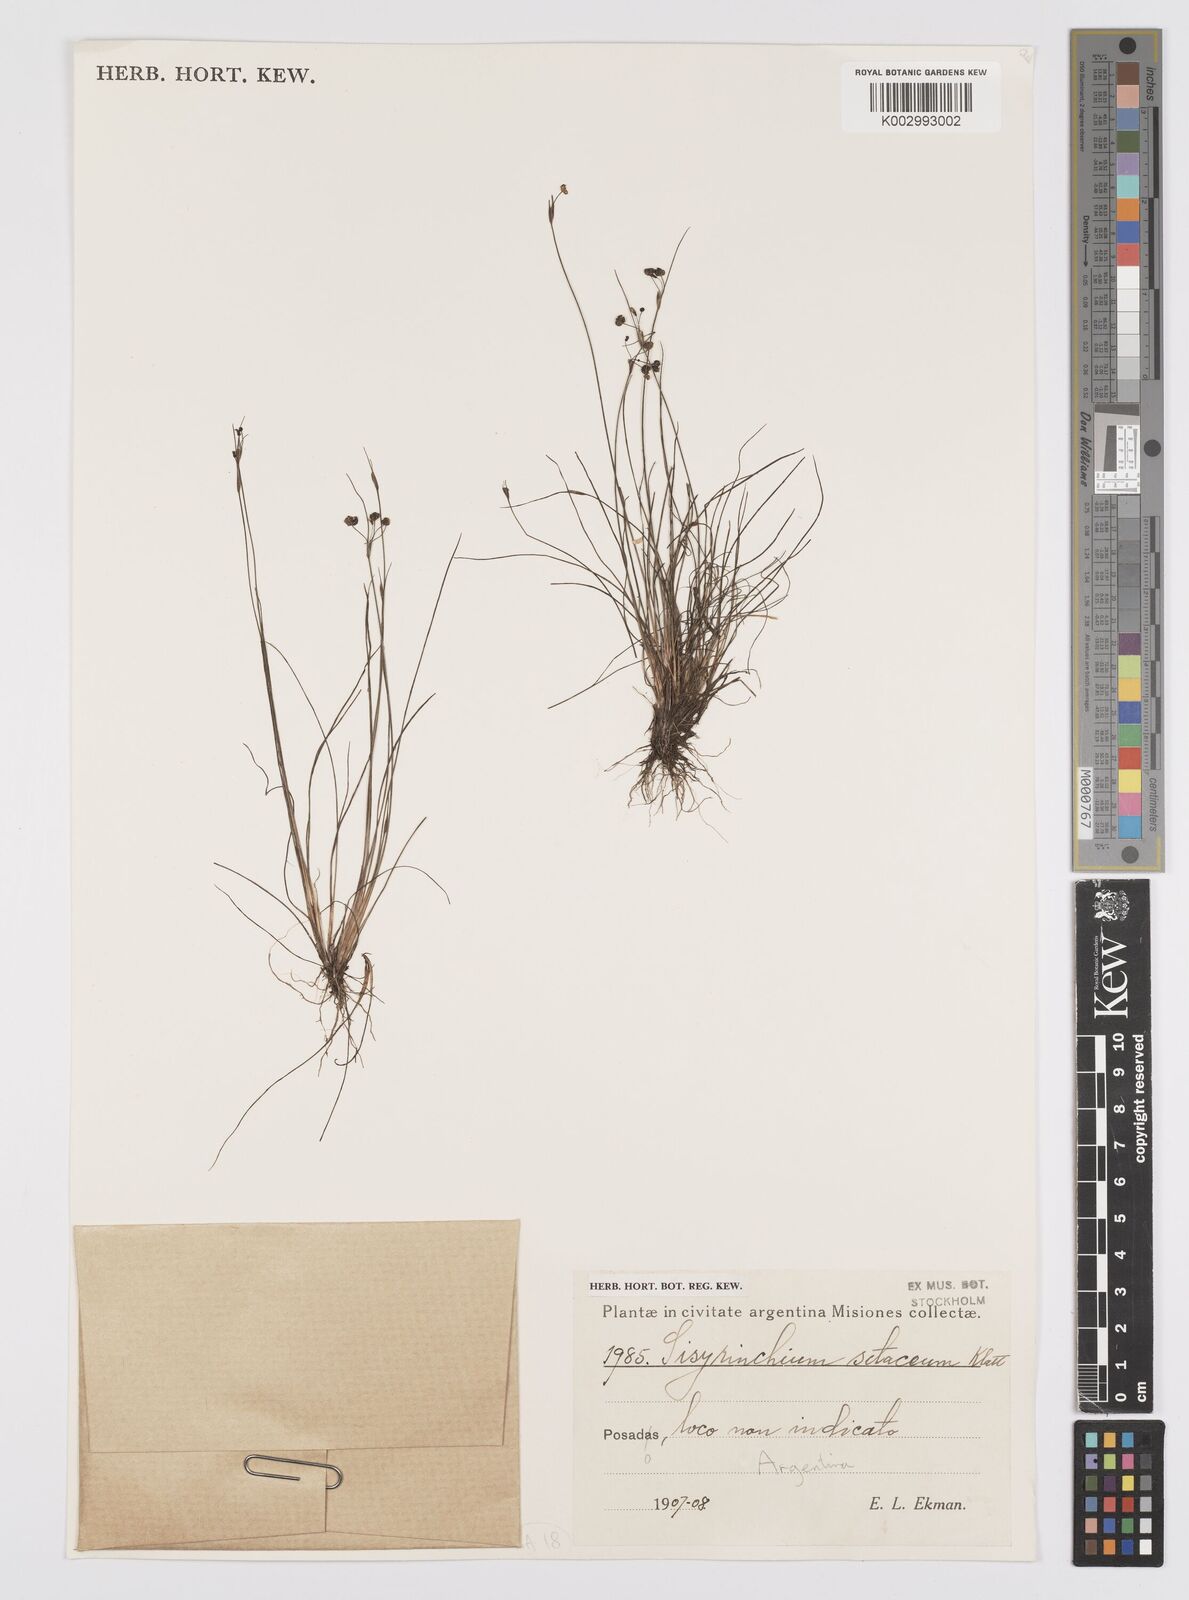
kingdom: Plantae
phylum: Tracheophyta
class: Liliopsida
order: Asparagales
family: Iridaceae
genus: Sisyrinchium
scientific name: Sisyrinchium setaceum
